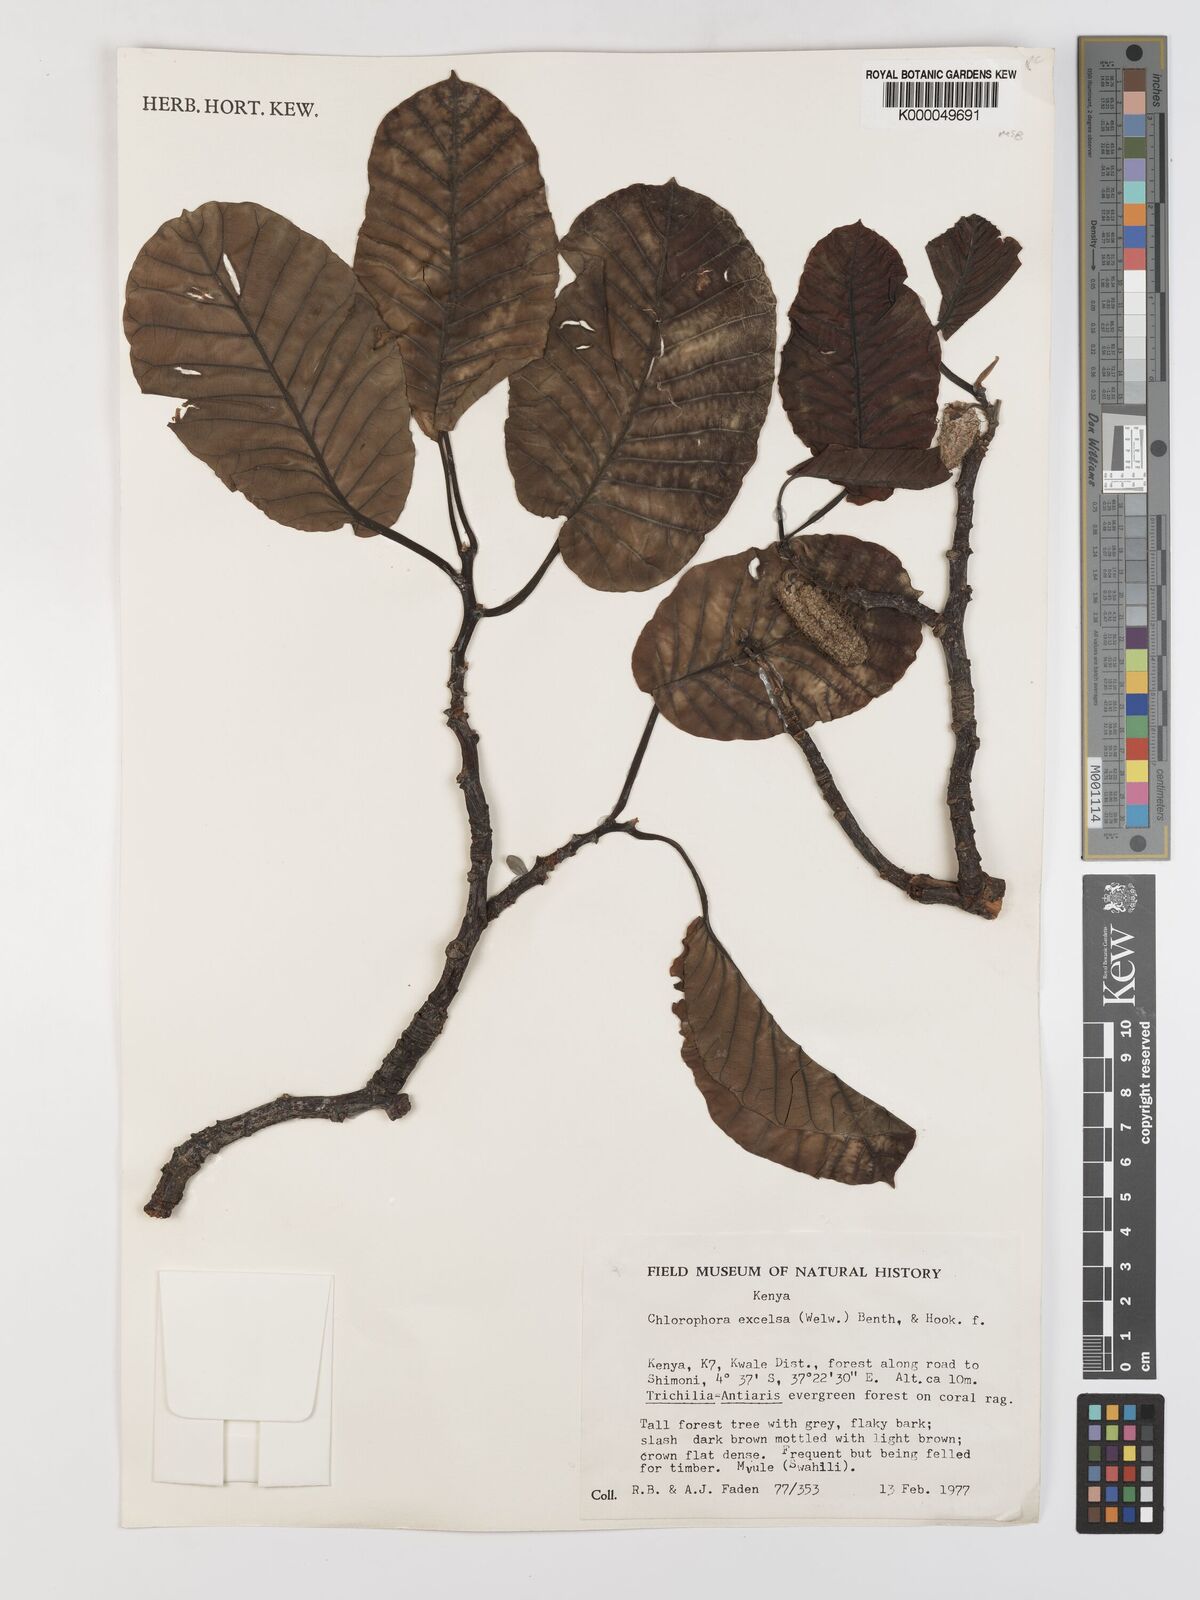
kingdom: Plantae
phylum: Tracheophyta
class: Magnoliopsida
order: Rosales
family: Moraceae
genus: Milicia
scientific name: Milicia excelsa
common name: African teak
